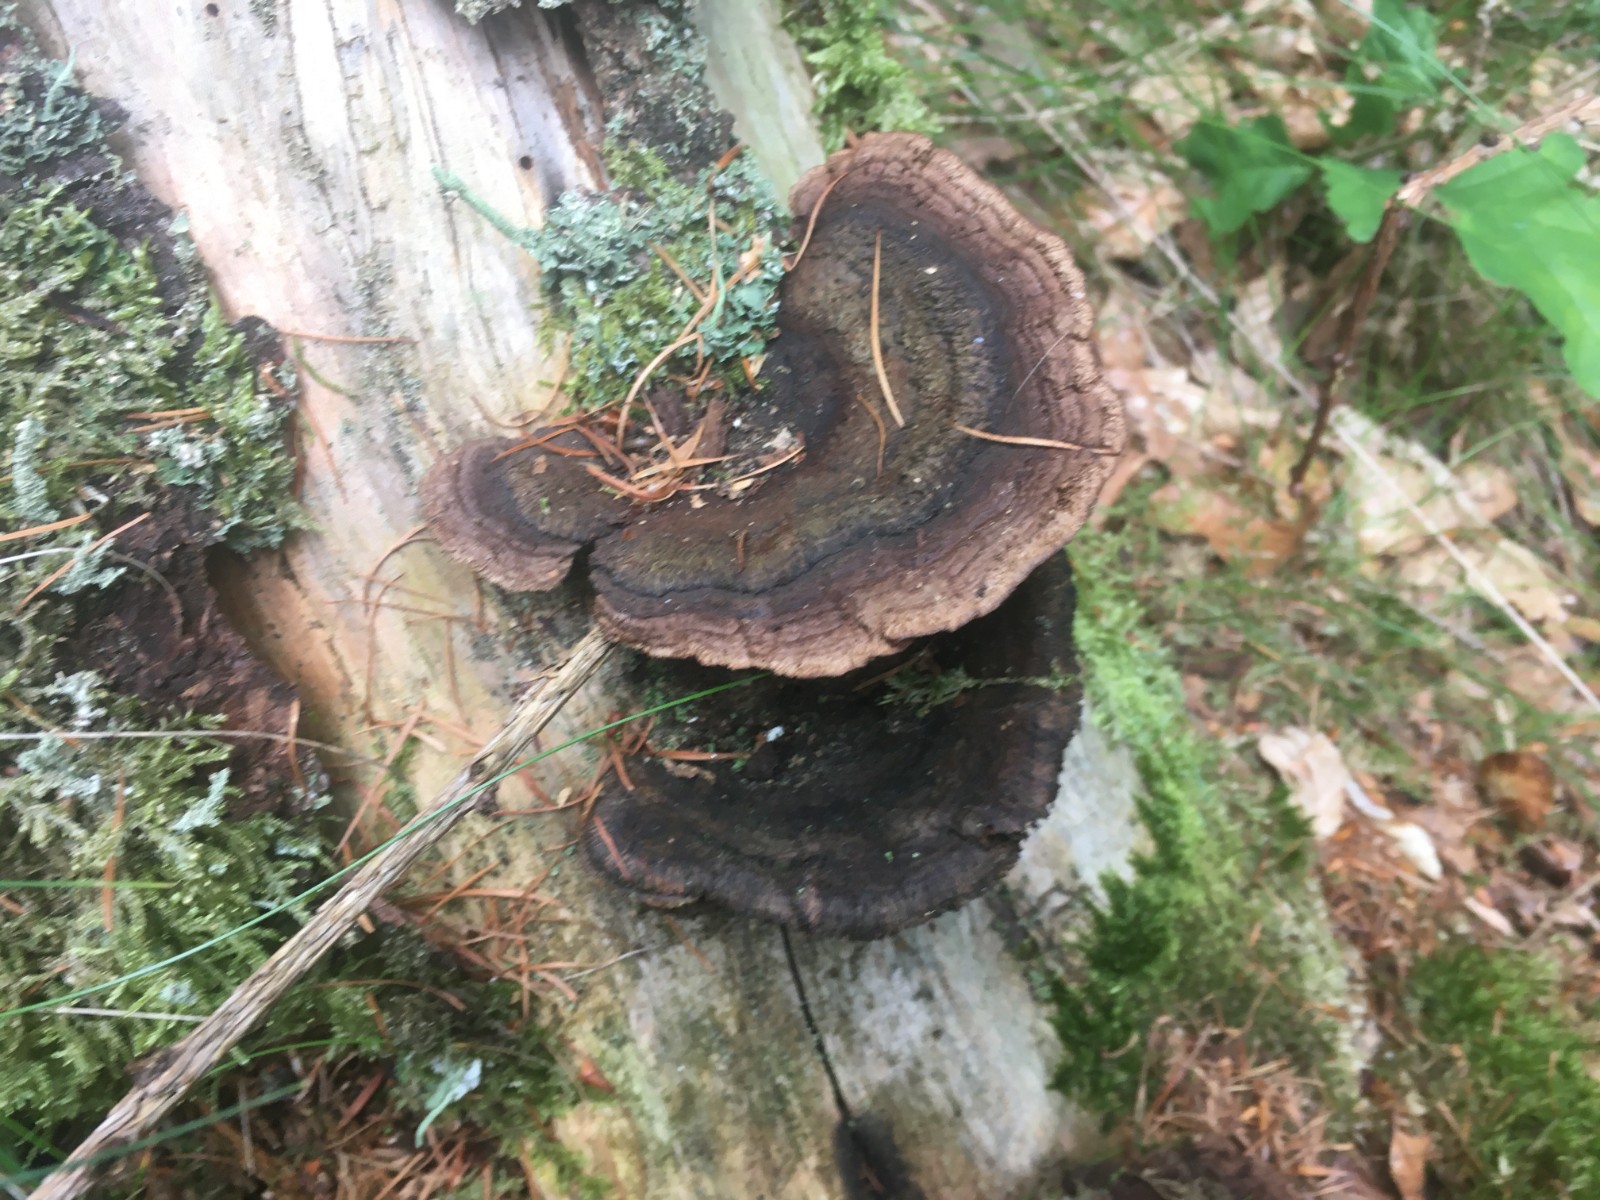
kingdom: Fungi
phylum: Basidiomycota
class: Agaricomycetes
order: Polyporales
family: Polyporaceae
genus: Trametes
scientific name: Trametes versicolor
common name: broget læderporesvamp
